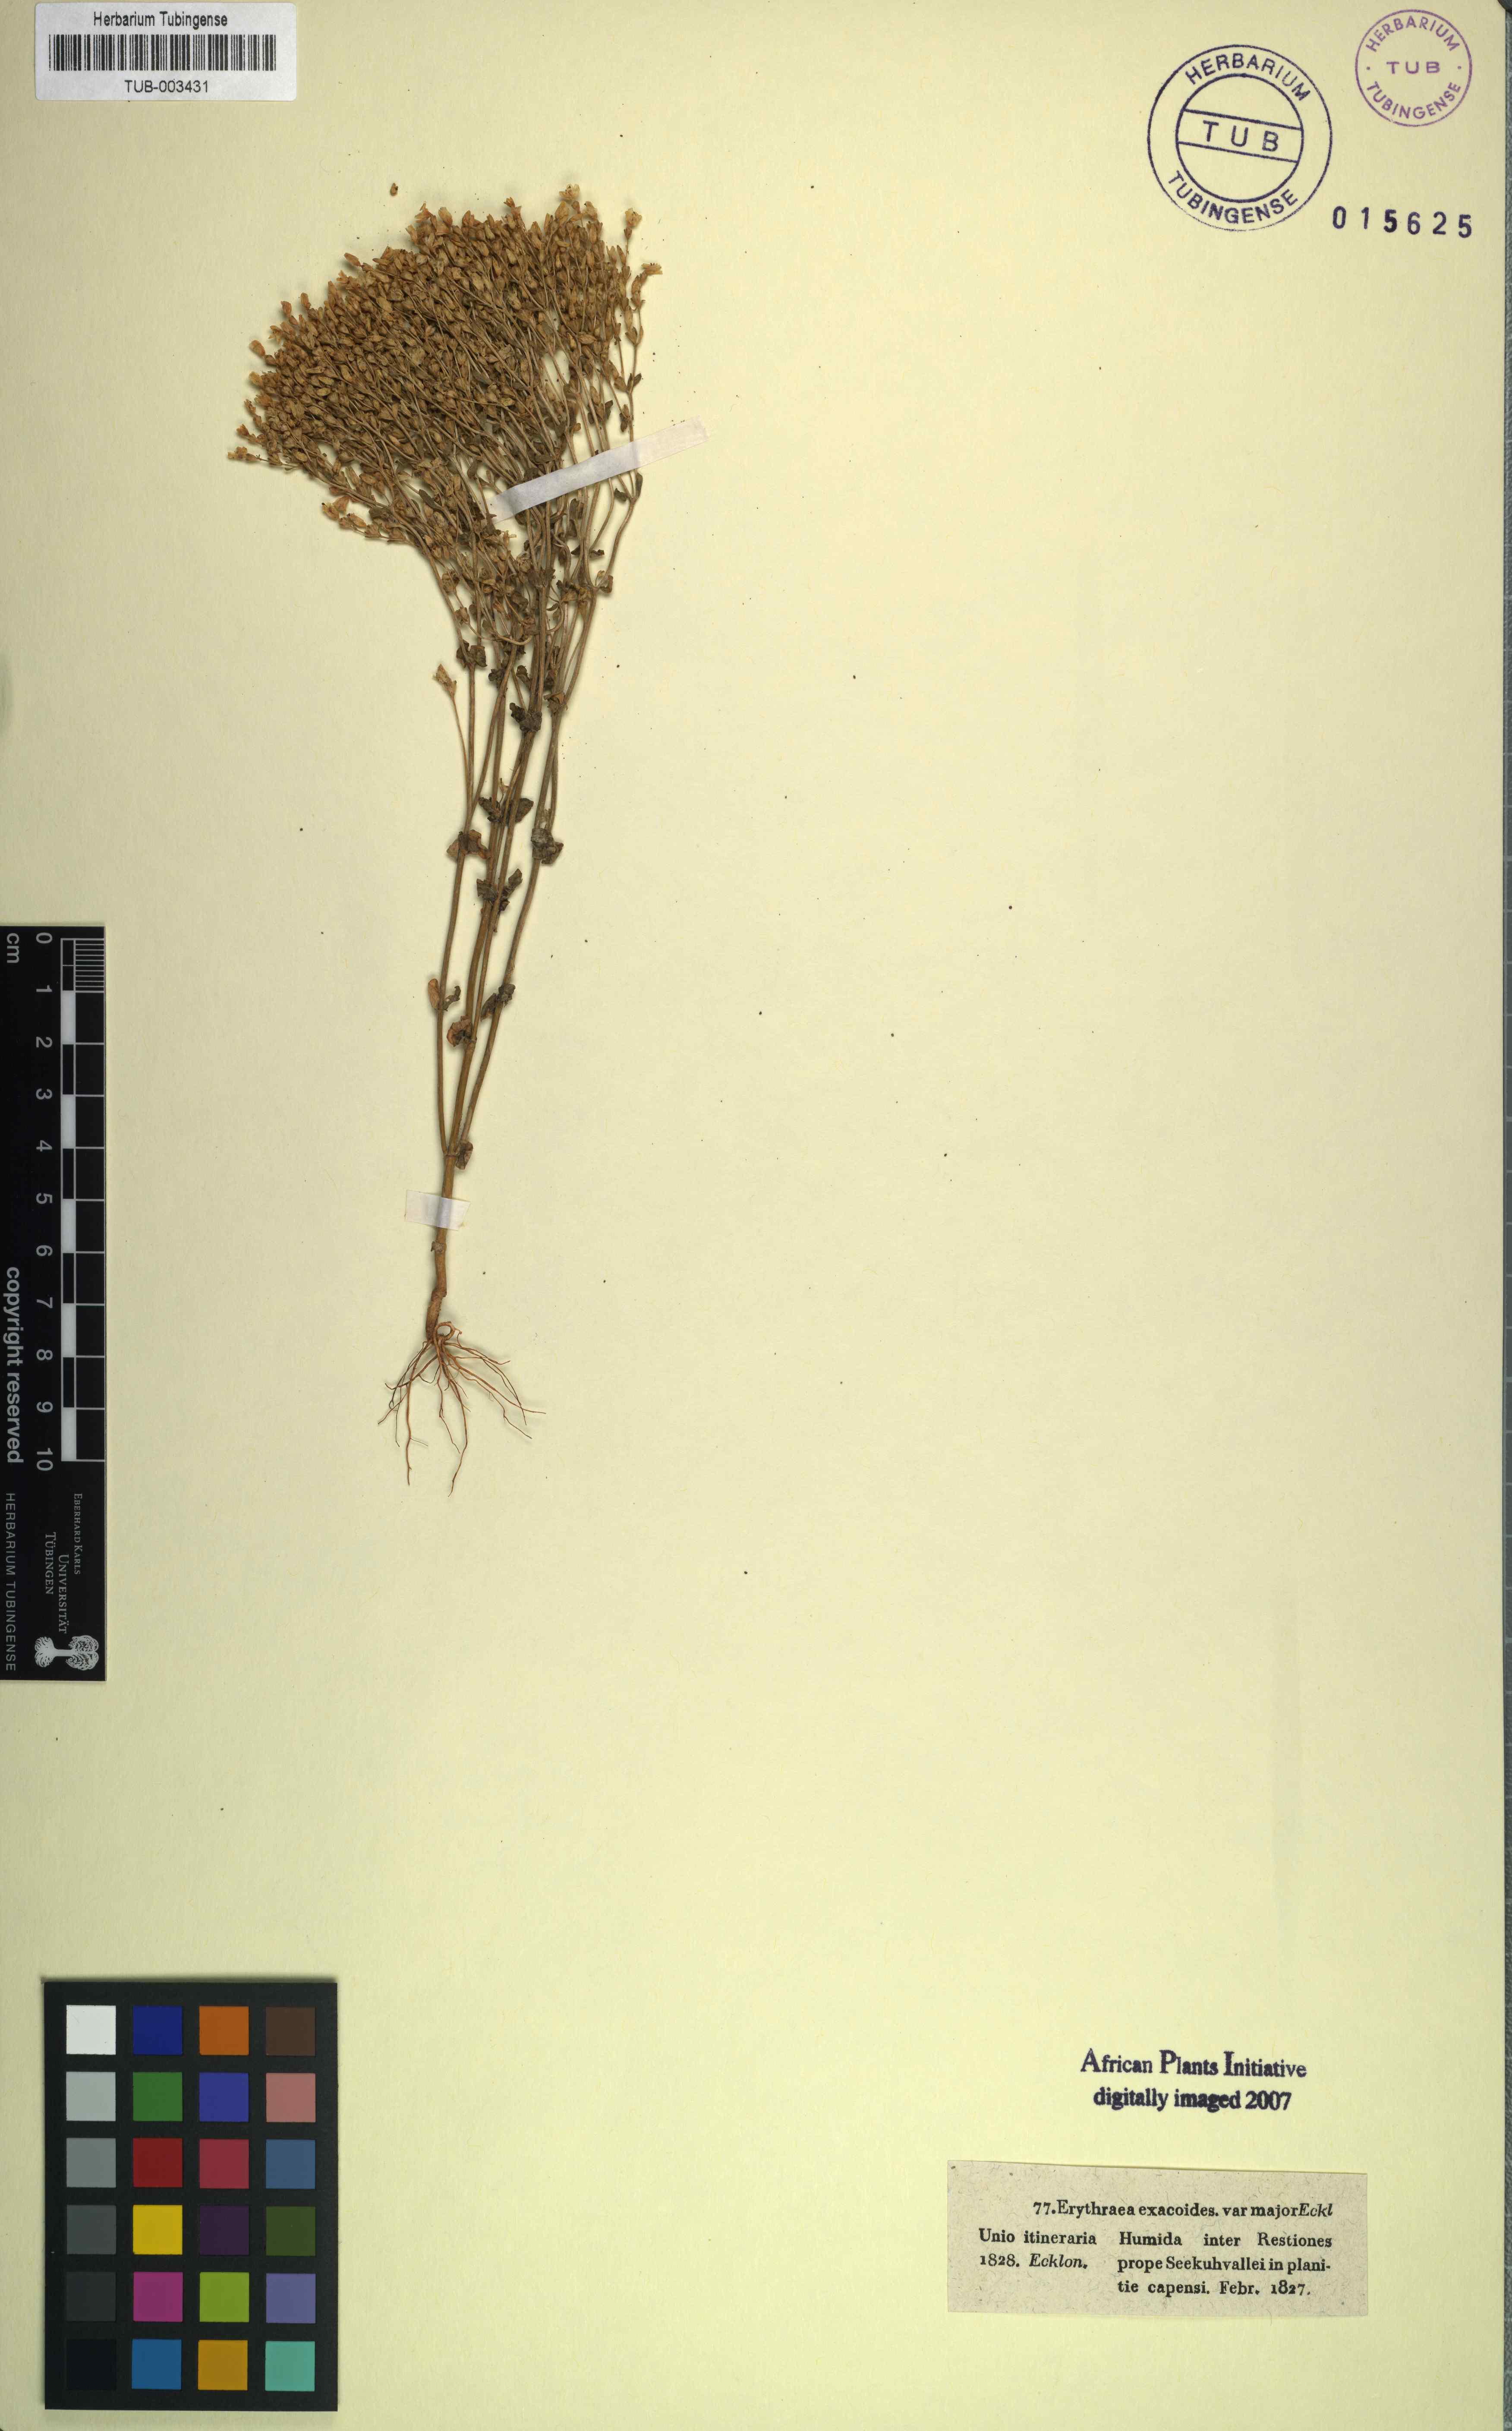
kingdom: Plantae
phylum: Tracheophyta
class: Magnoliopsida
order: Gentianales
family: Gentianaceae
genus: Erythraea
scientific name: Erythraea
